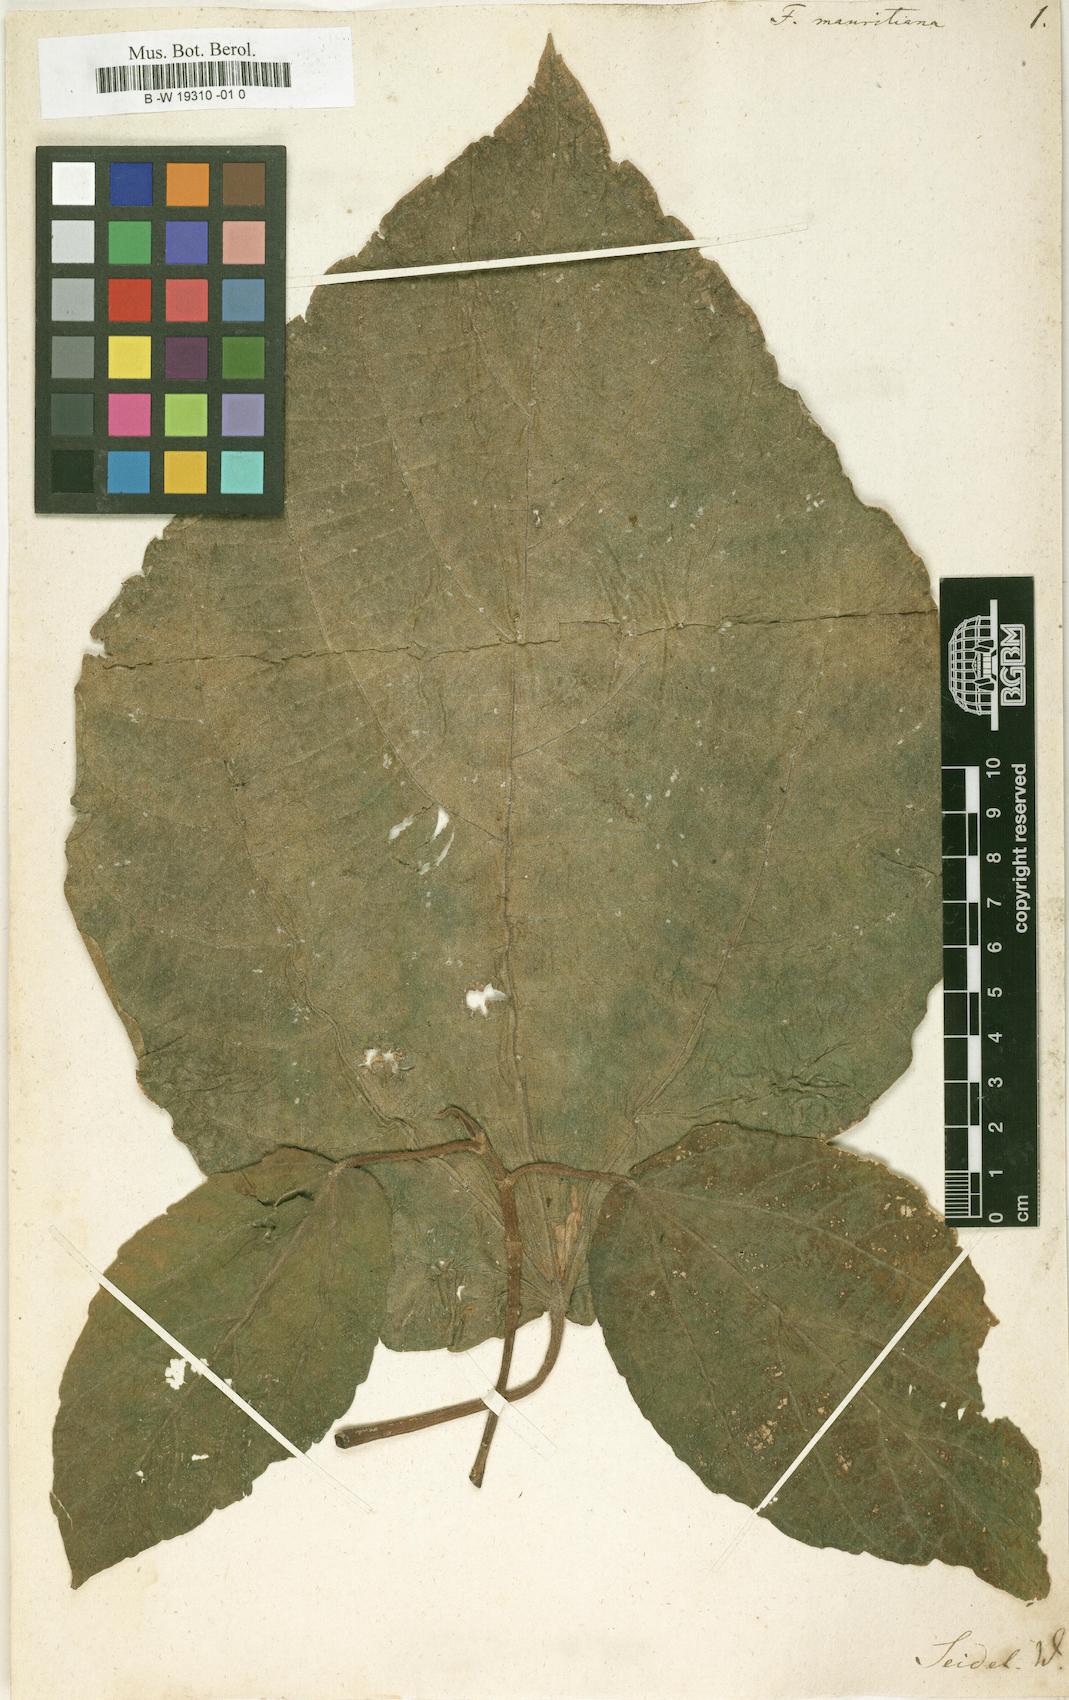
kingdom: Plantae
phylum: Tracheophyta
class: Magnoliopsida
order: Rosales
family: Moraceae
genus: Ficus
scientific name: Ficus mauritiana
